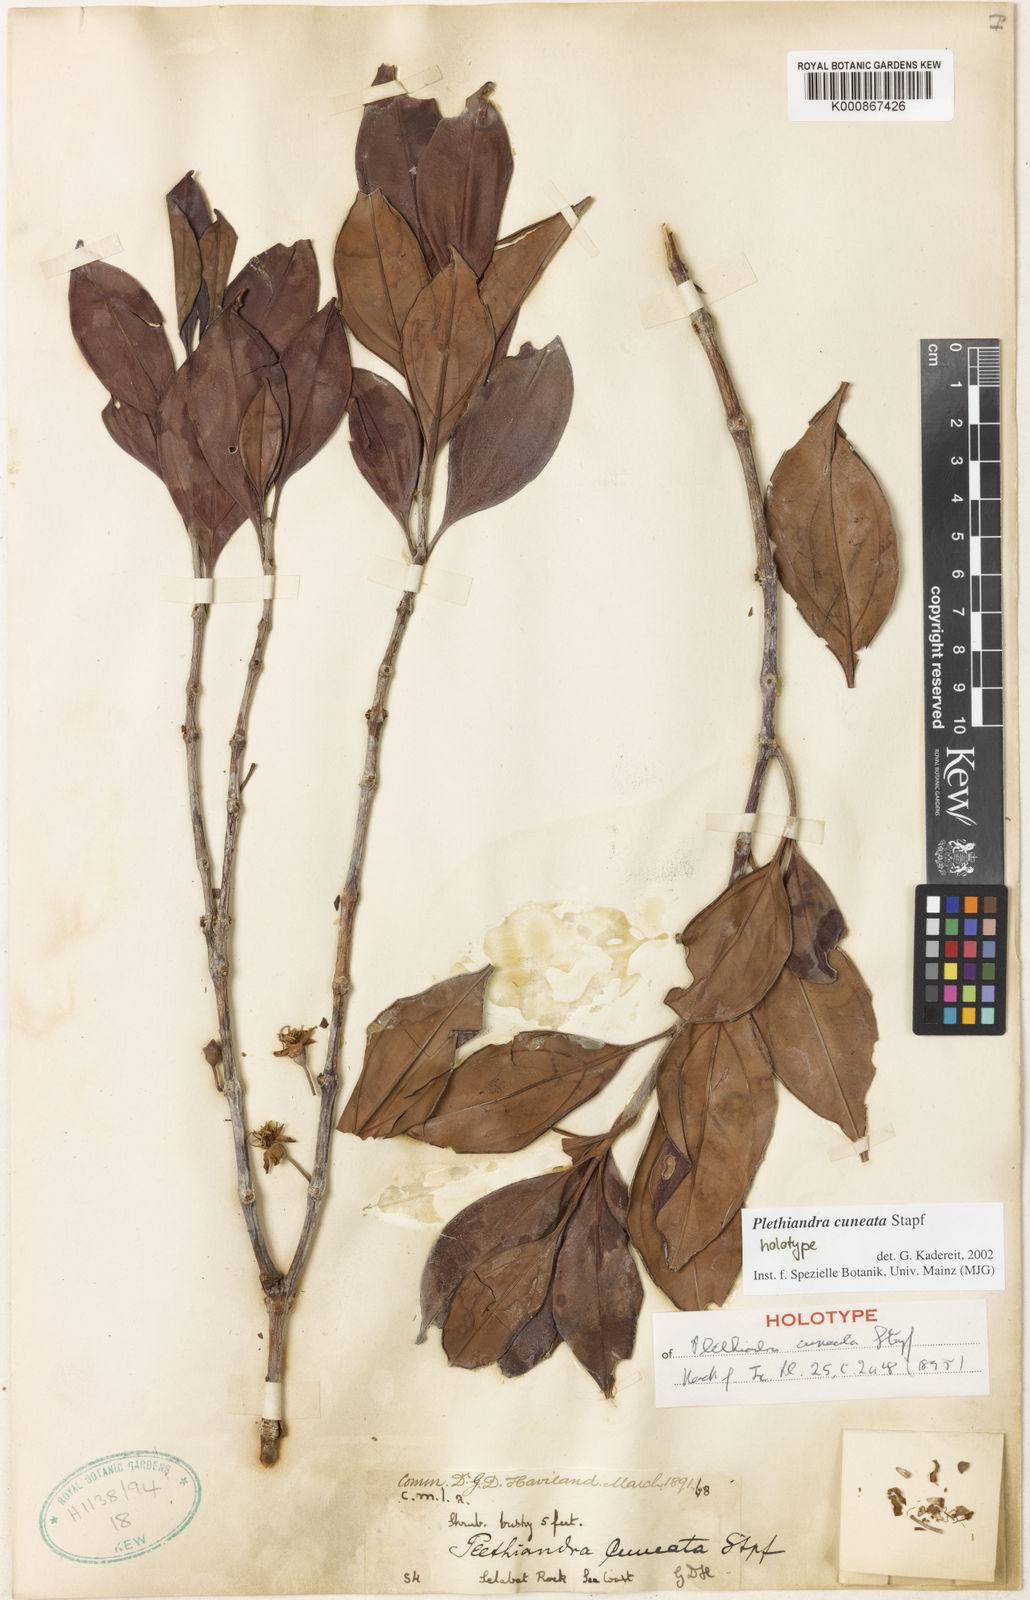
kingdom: Plantae
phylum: Tracheophyta
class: Magnoliopsida
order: Myrtales
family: Melastomataceae
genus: Plethiandra
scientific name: Plethiandra cuneata
